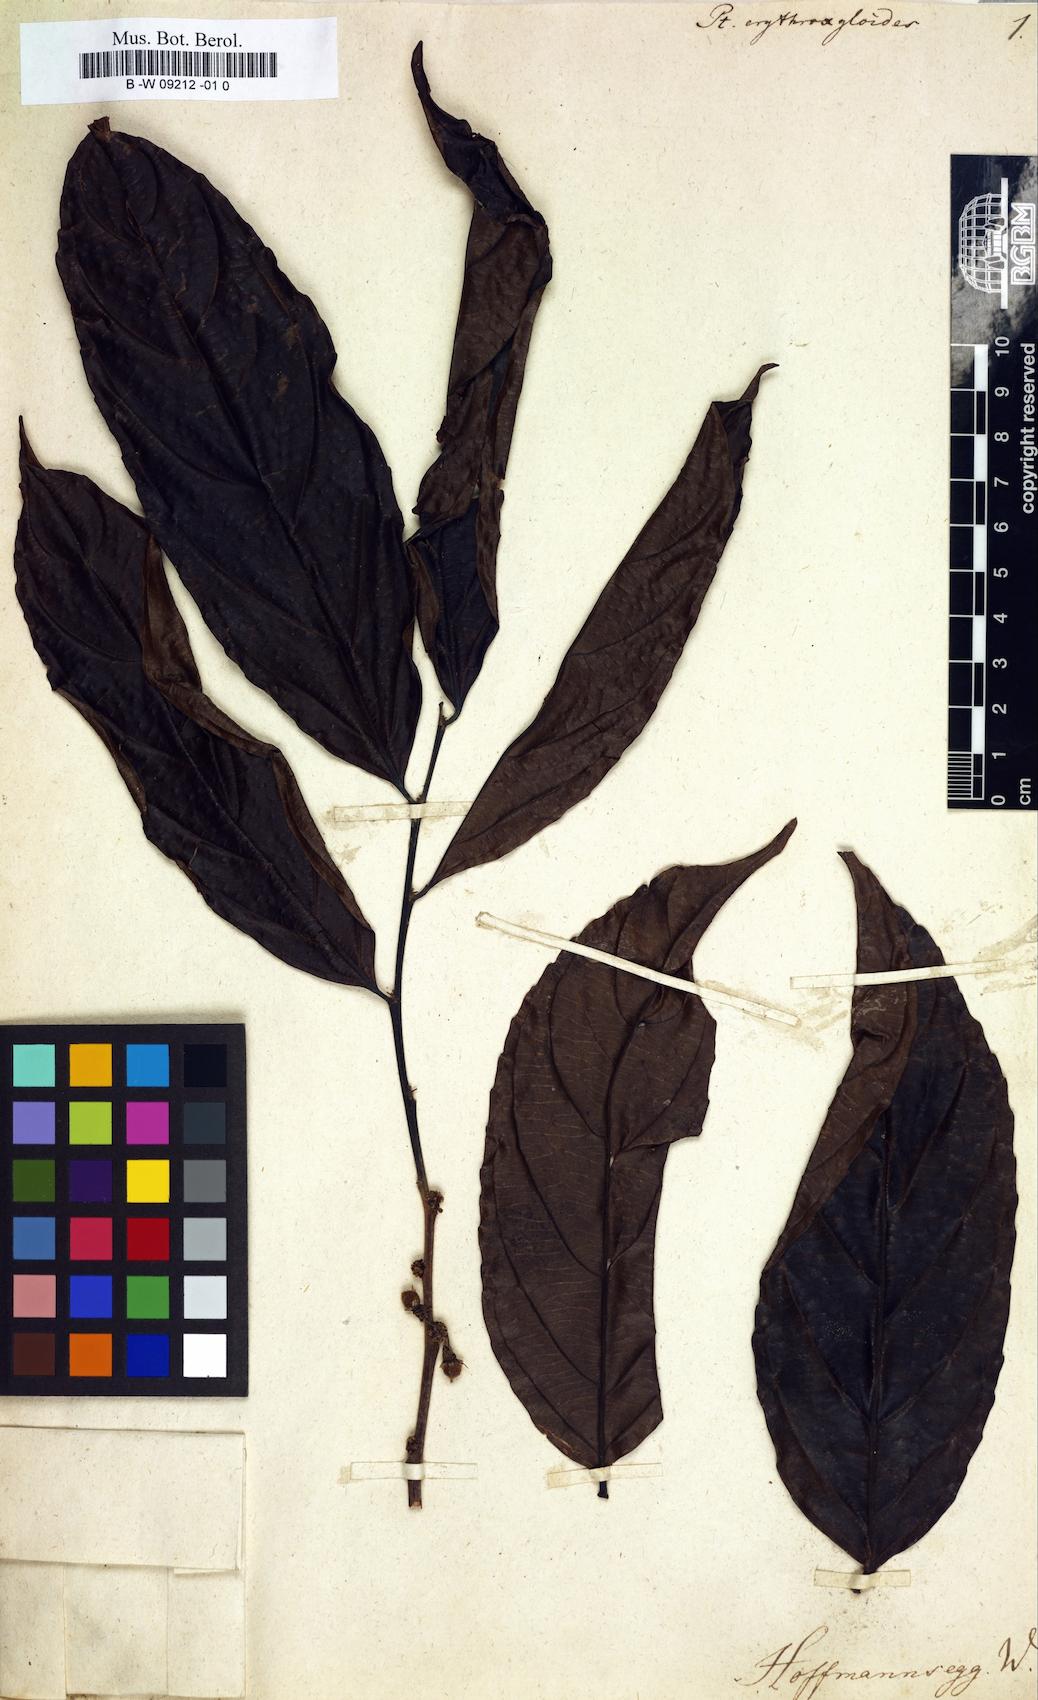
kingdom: Plantae
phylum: Tracheophyta
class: Magnoliopsida
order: Malpighiales
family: Malpighiaceae
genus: Pterandra
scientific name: Pterandra
